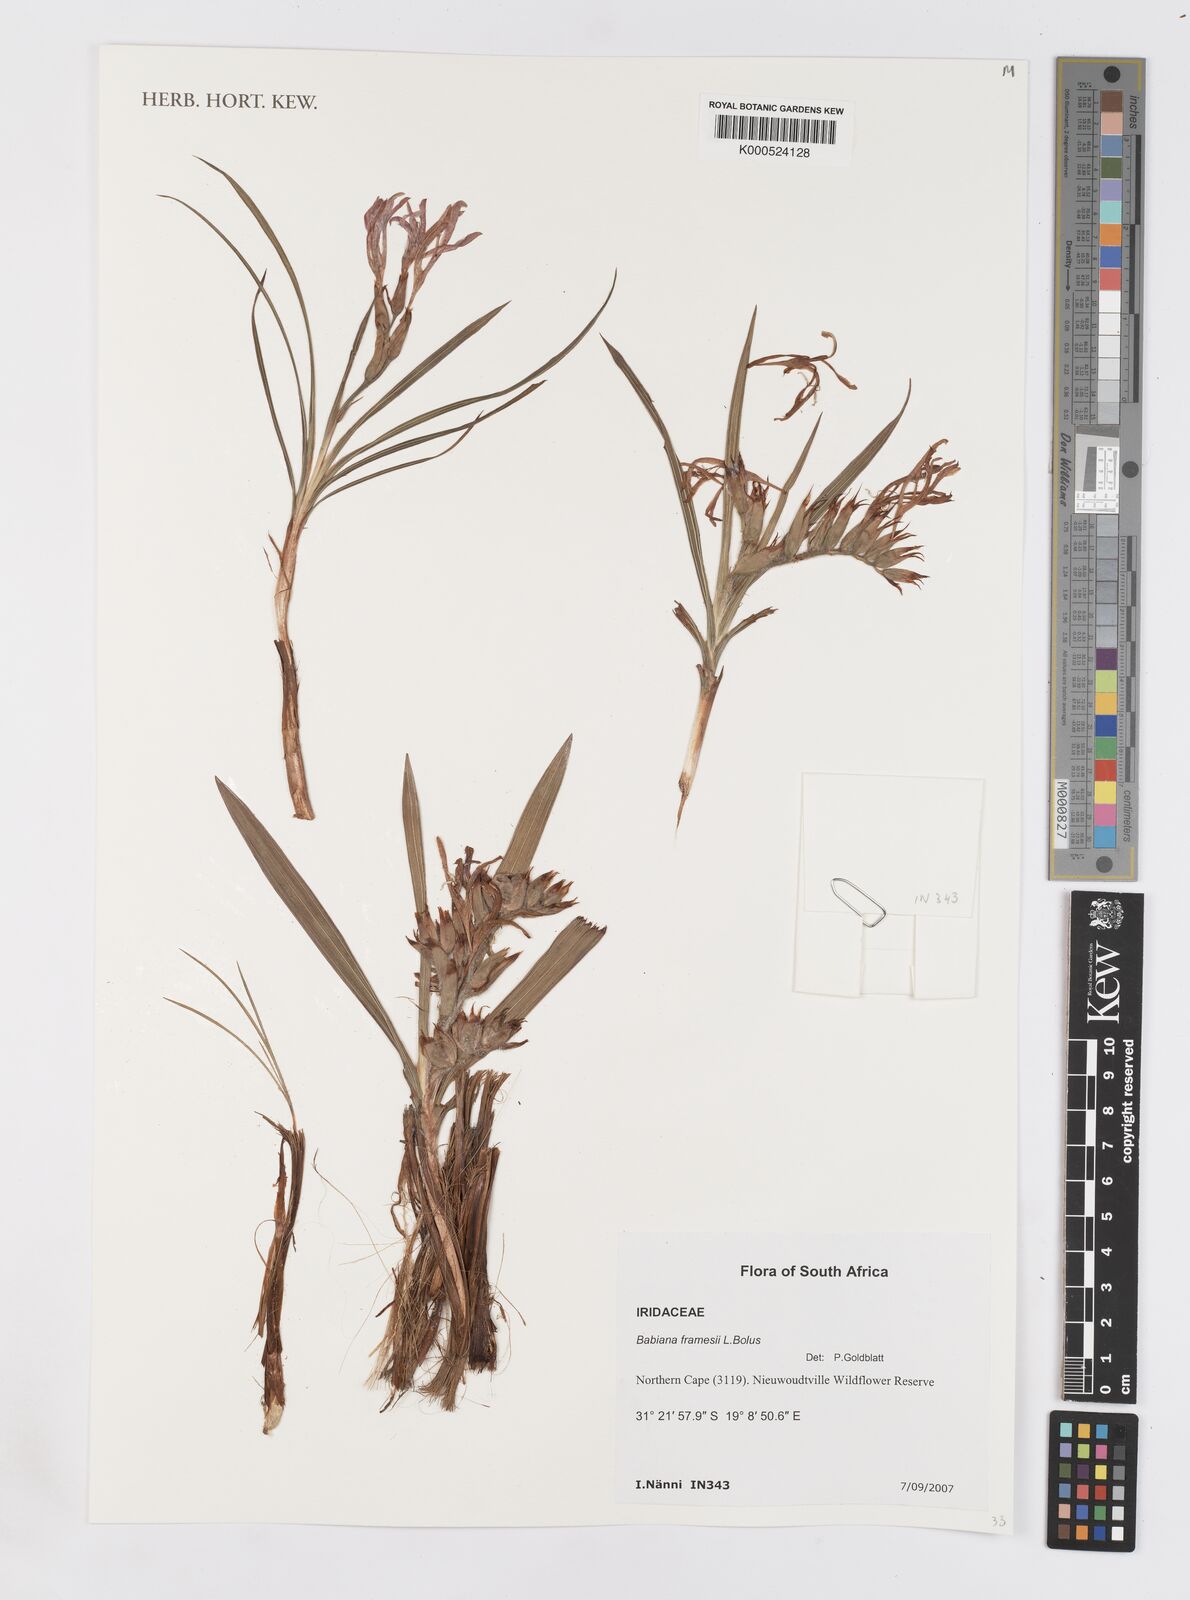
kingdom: Plantae
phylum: Tracheophyta
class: Liliopsida
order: Asparagales
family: Iridaceae
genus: Babiana
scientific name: Babiana framesii
